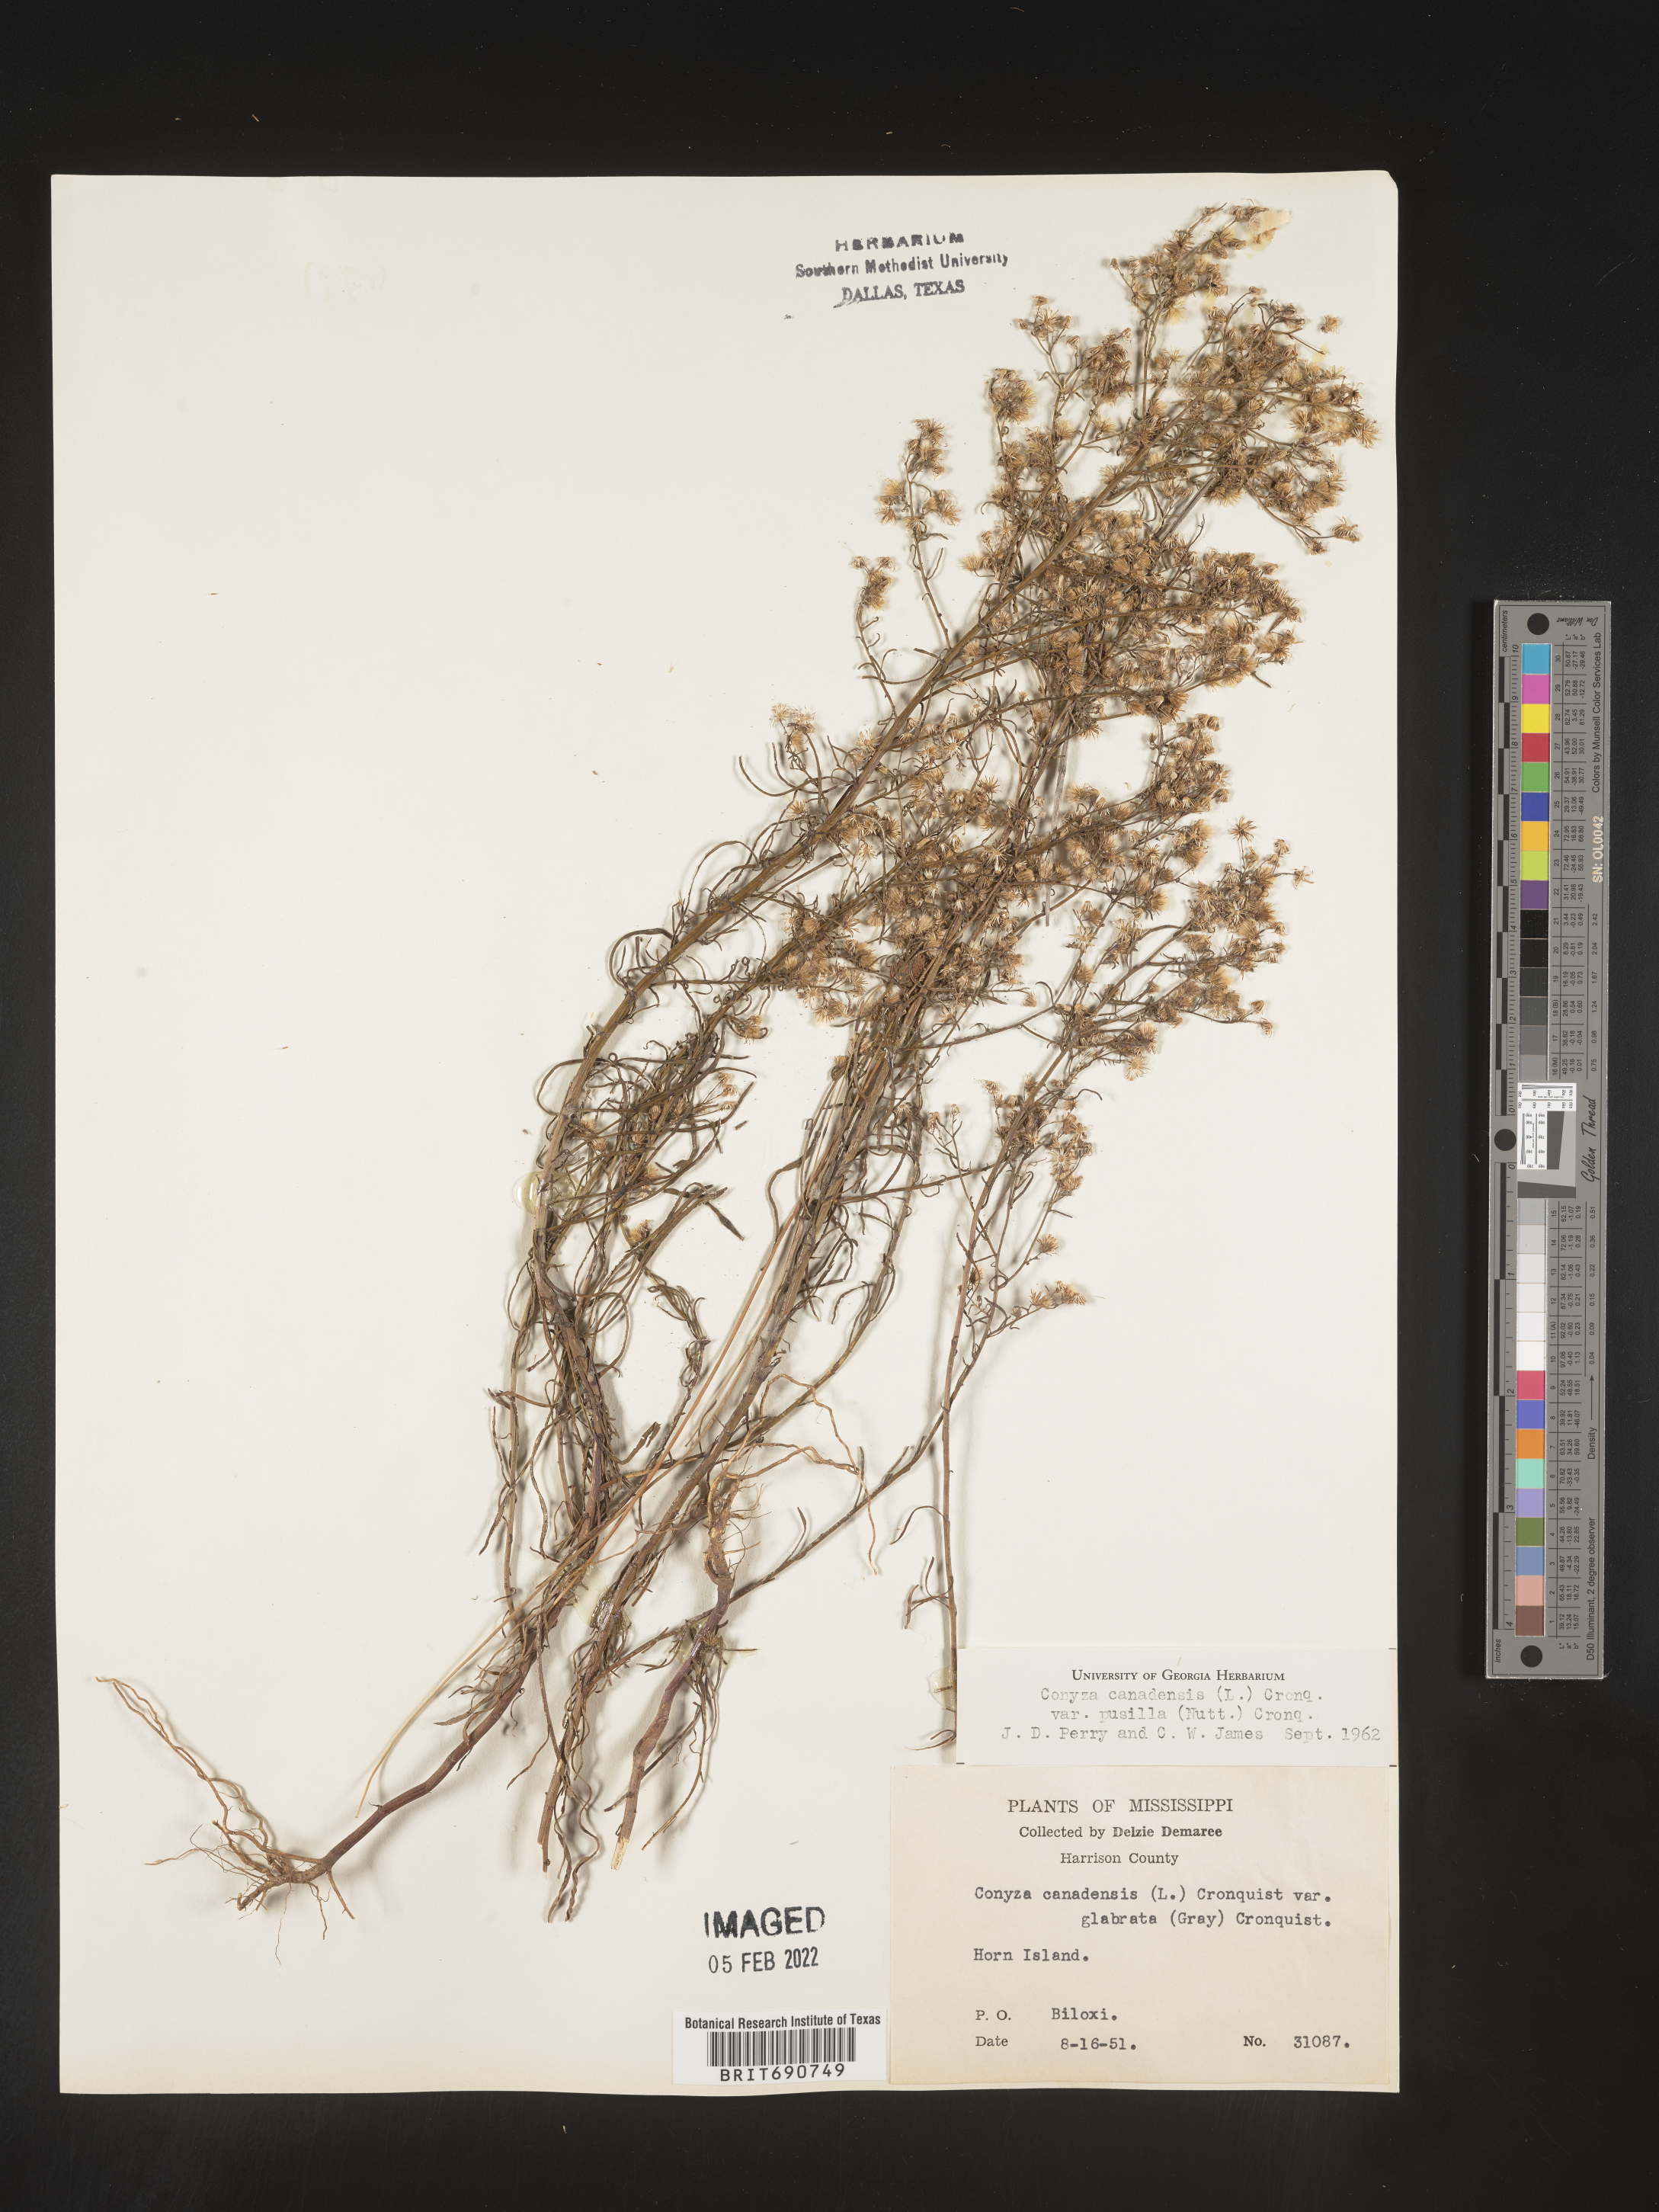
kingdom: Plantae
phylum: Tracheophyta
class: Magnoliopsida
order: Asterales
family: Asteraceae
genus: Erigeron
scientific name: Erigeron canadensis
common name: Canadian fleabane
